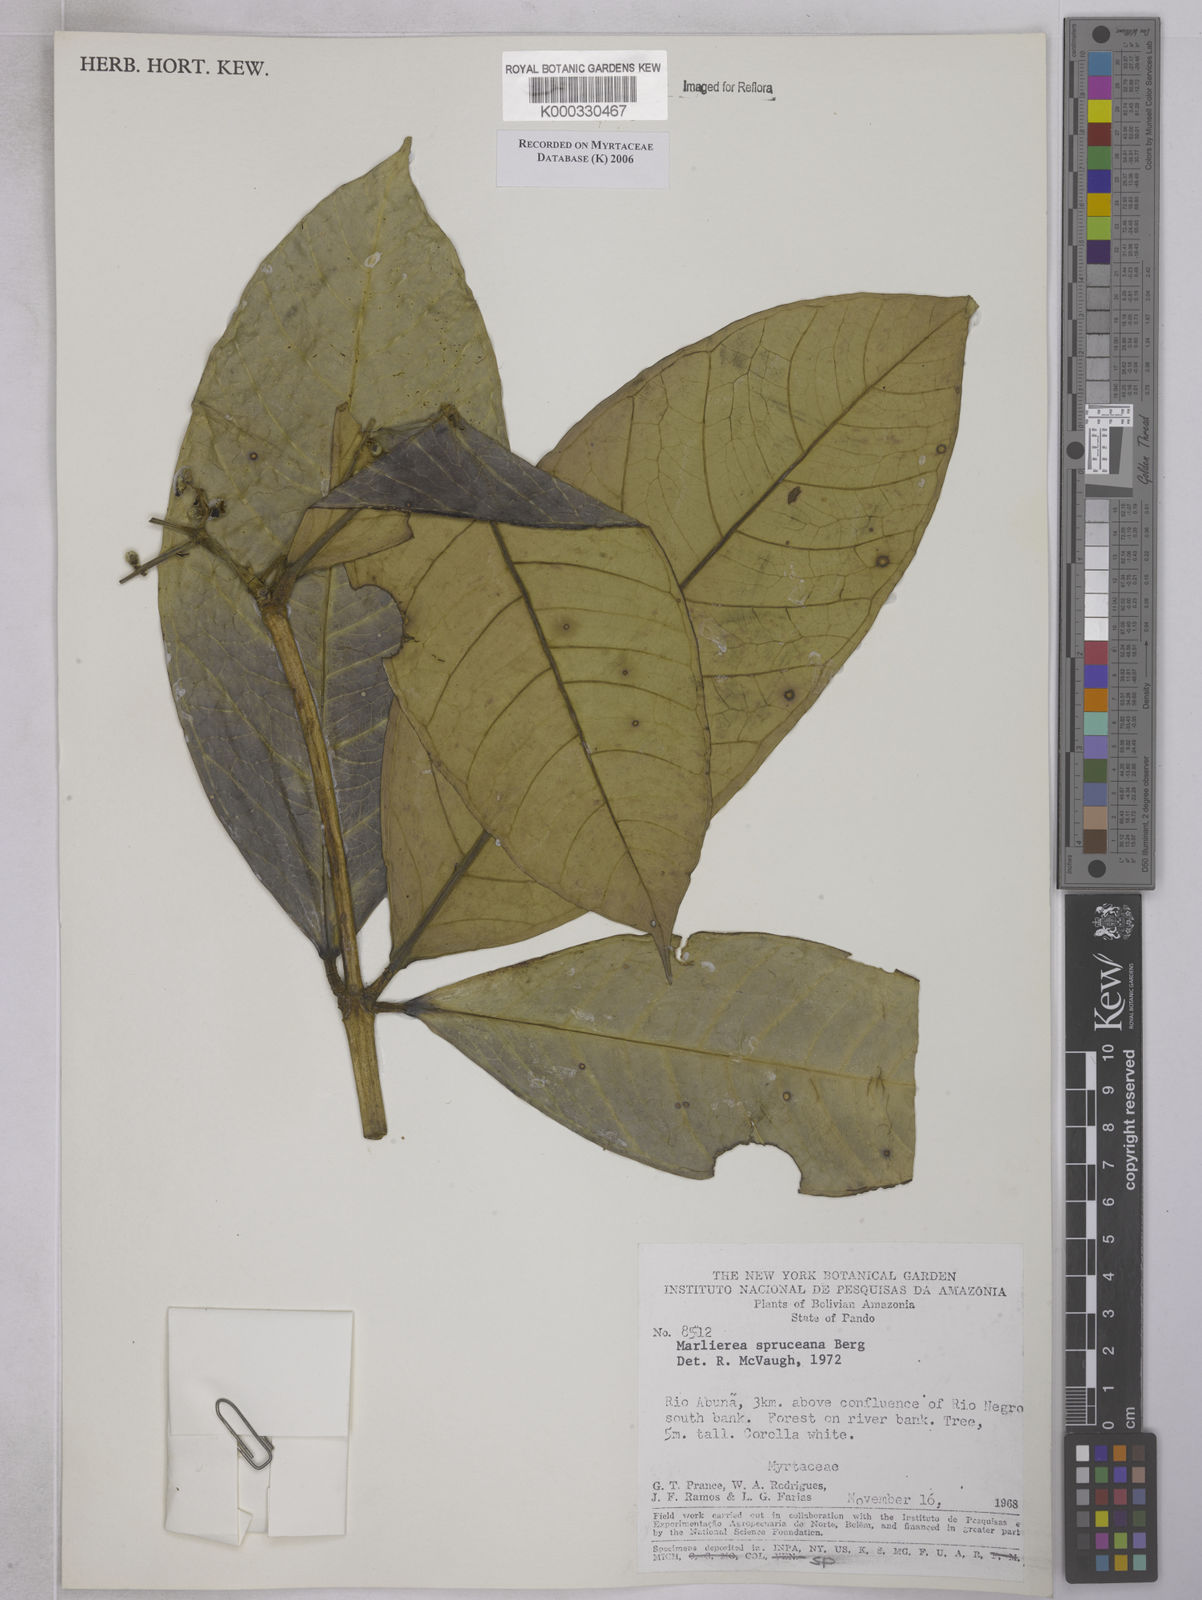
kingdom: Plantae
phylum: Tracheophyta
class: Magnoliopsida
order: Myrtales
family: Myrtaceae
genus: Myrcia
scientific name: Myrcia argentigemma
